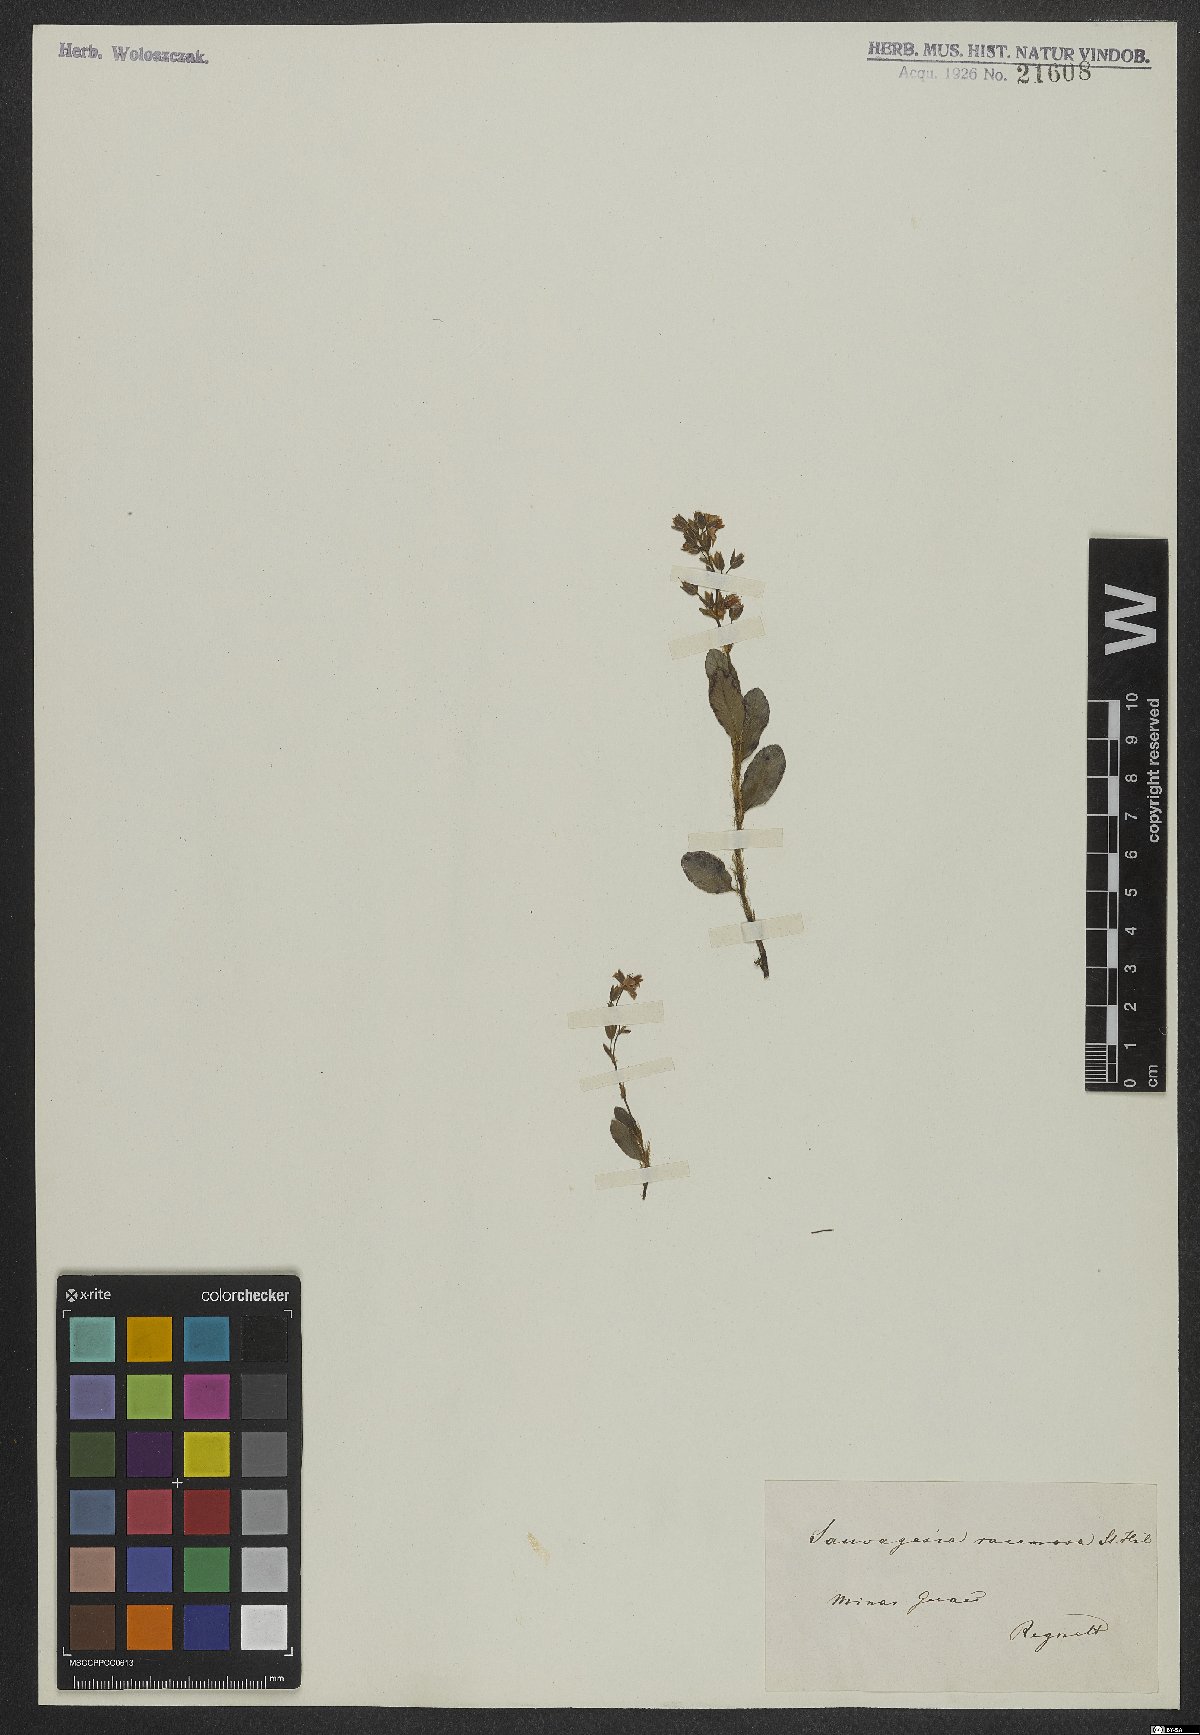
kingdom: Plantae
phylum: Tracheophyta
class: Magnoliopsida
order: Malpighiales
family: Ochnaceae
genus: Sauvagesia
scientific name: Sauvagesia racemosa
